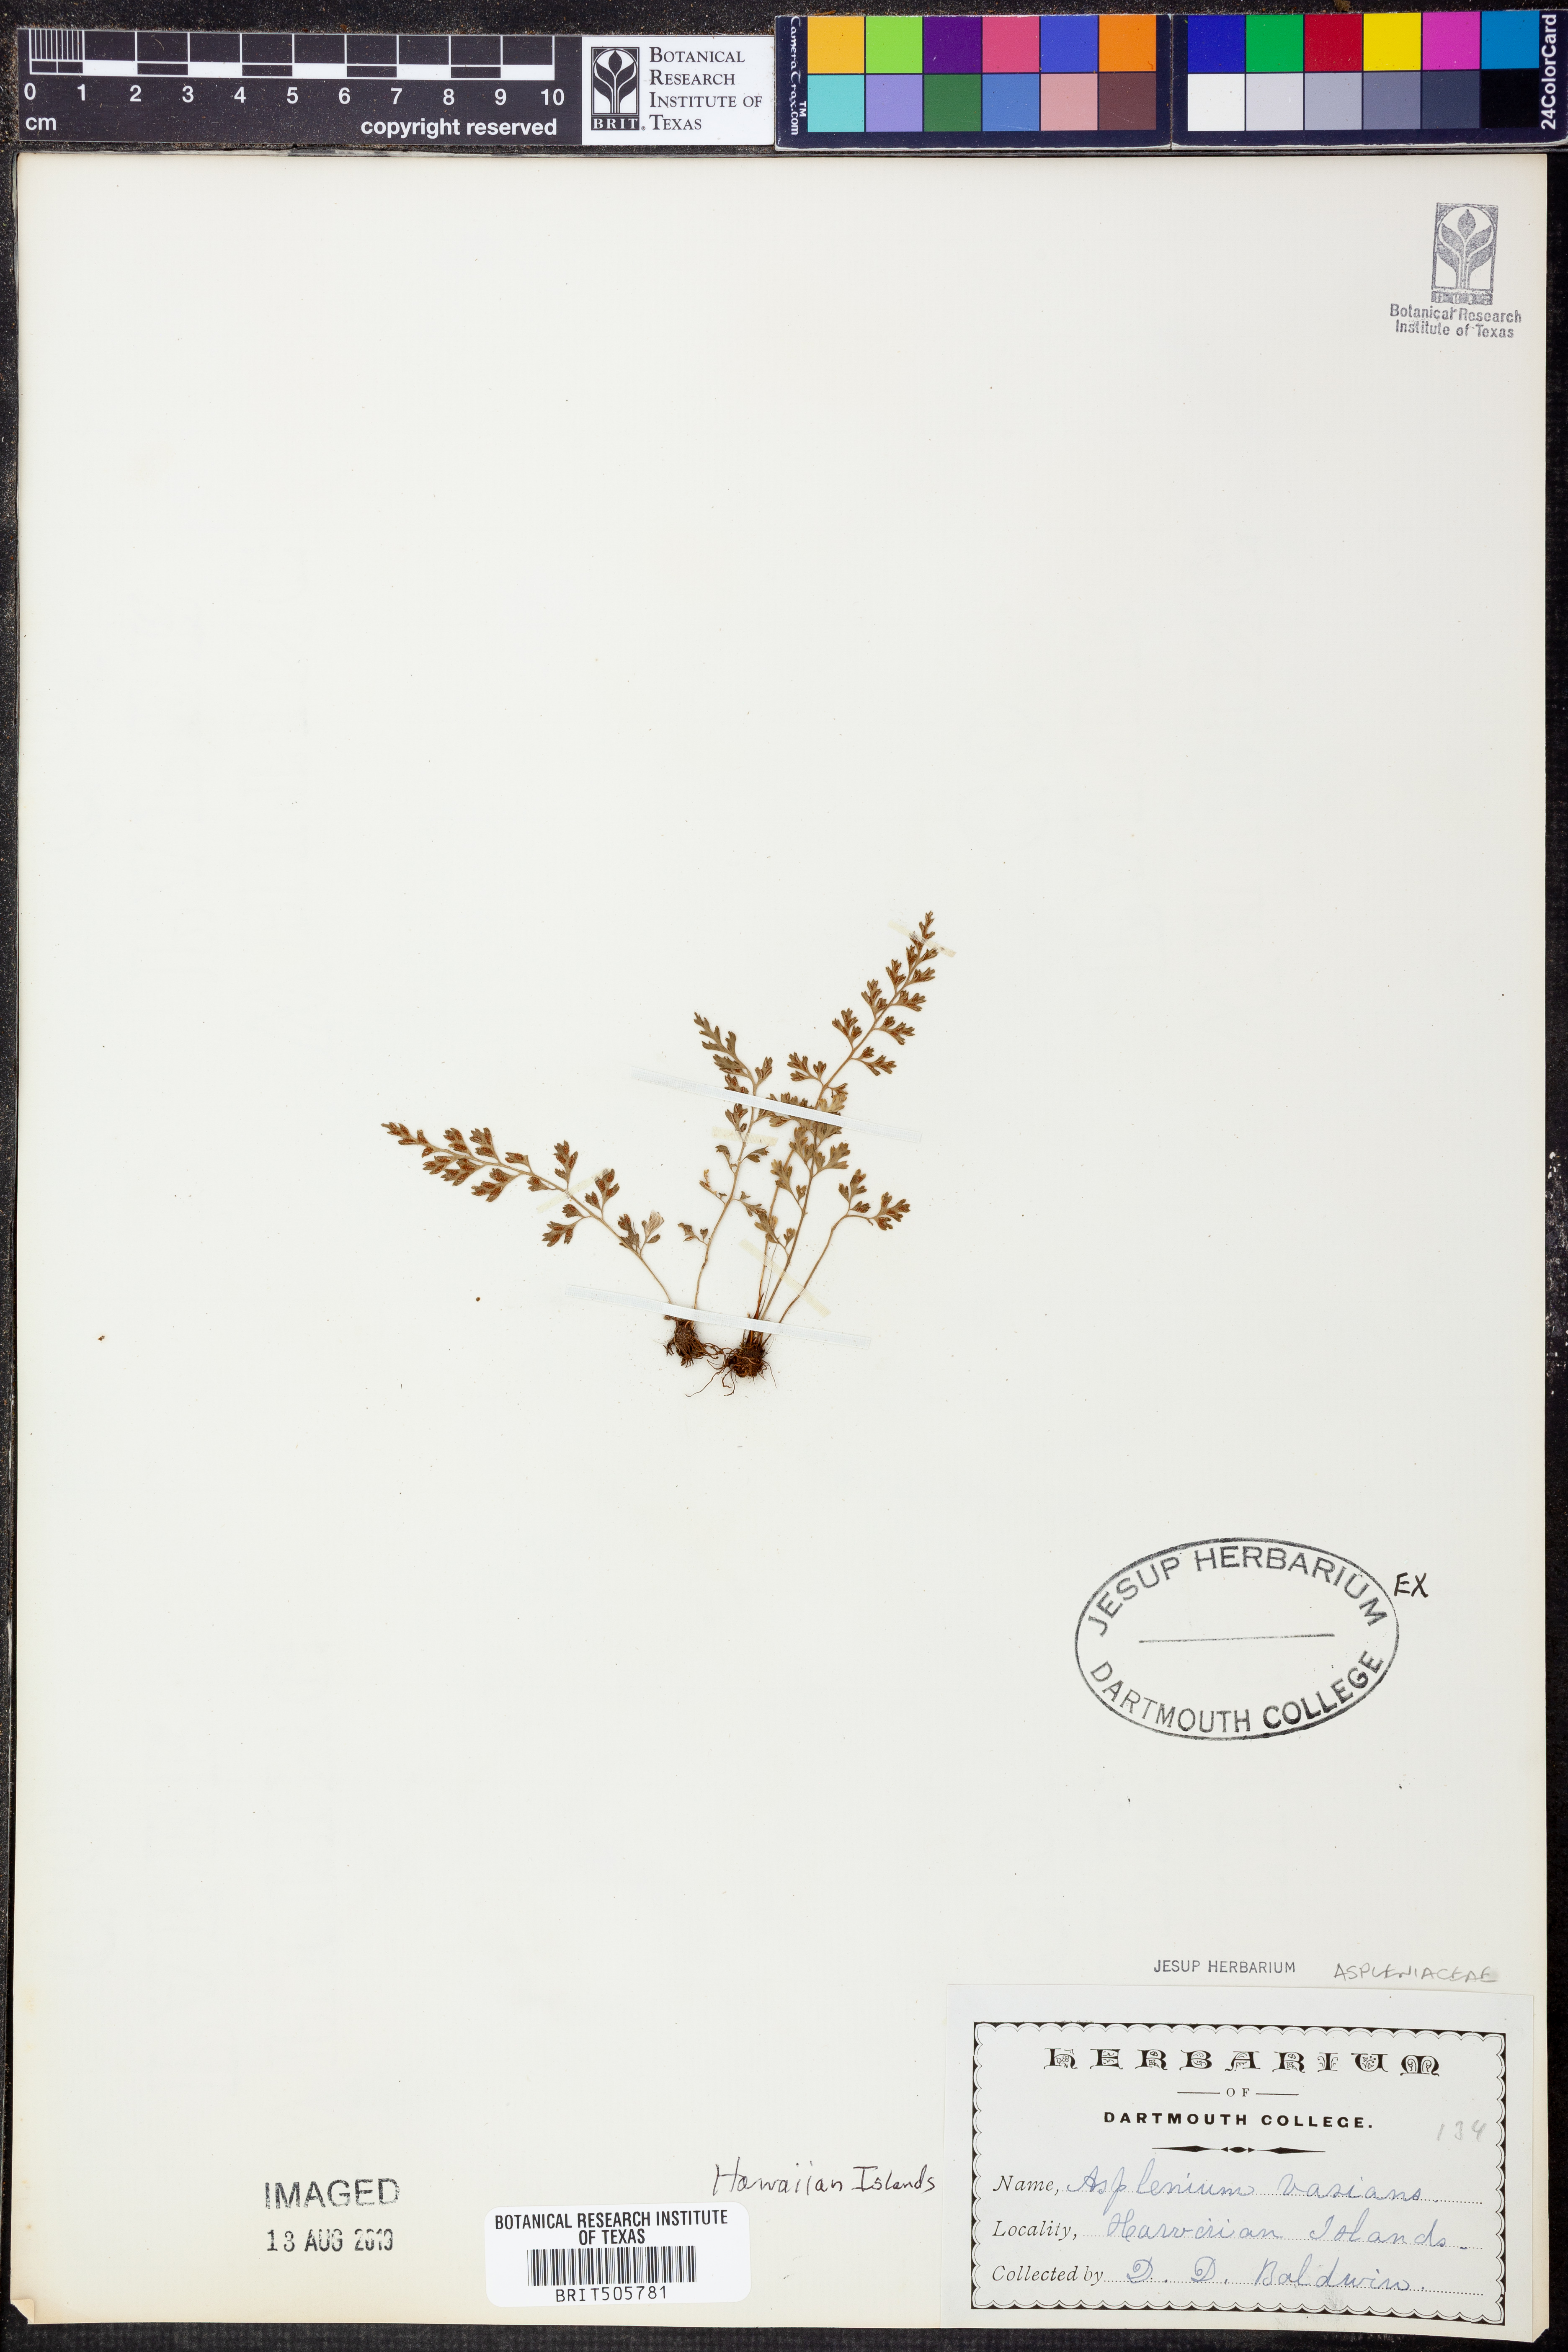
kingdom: Plantae
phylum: Tracheophyta
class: Polypodiopsida
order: Polypodiales
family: Aspleniaceae
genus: Asplenium
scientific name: Asplenium laciniatum
